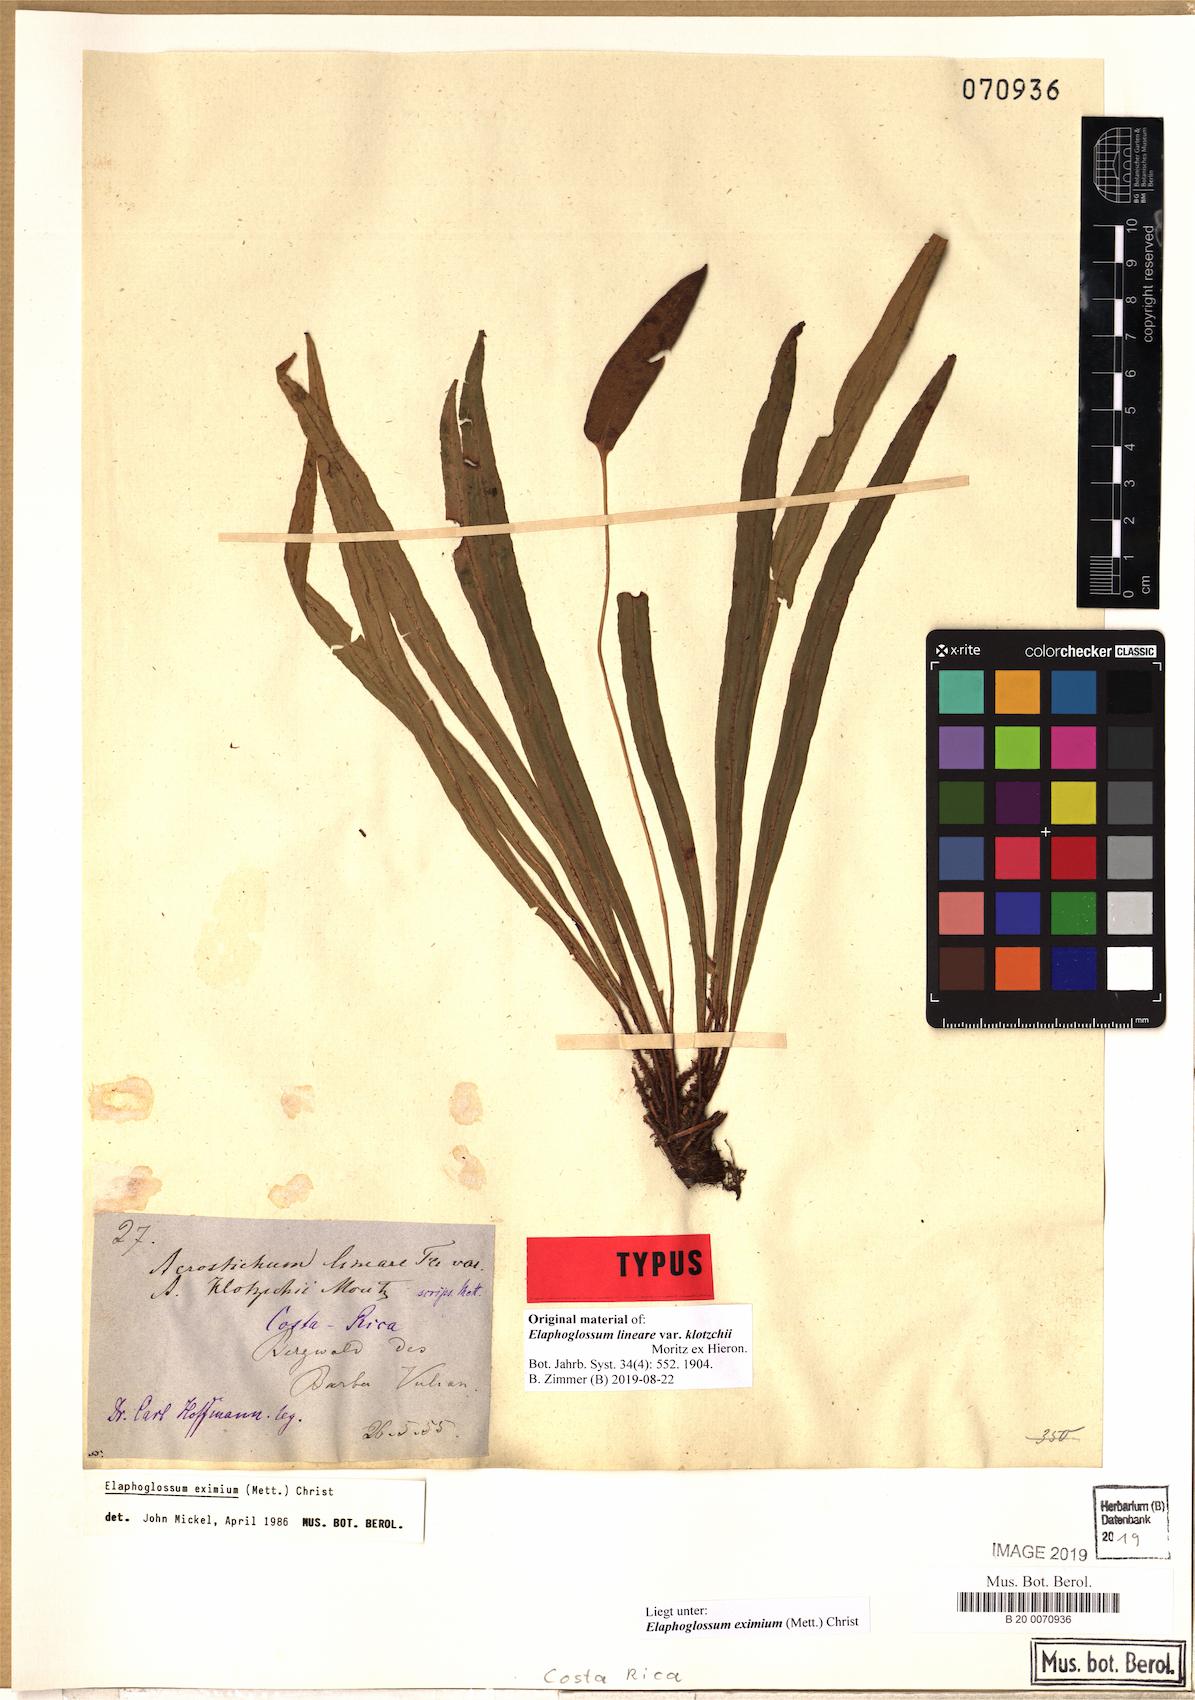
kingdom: Plantae
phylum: Tracheophyta
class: Polypodiopsida
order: Polypodiales
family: Dryopteridaceae
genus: Elaphoglossum
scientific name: Elaphoglossum eximium
